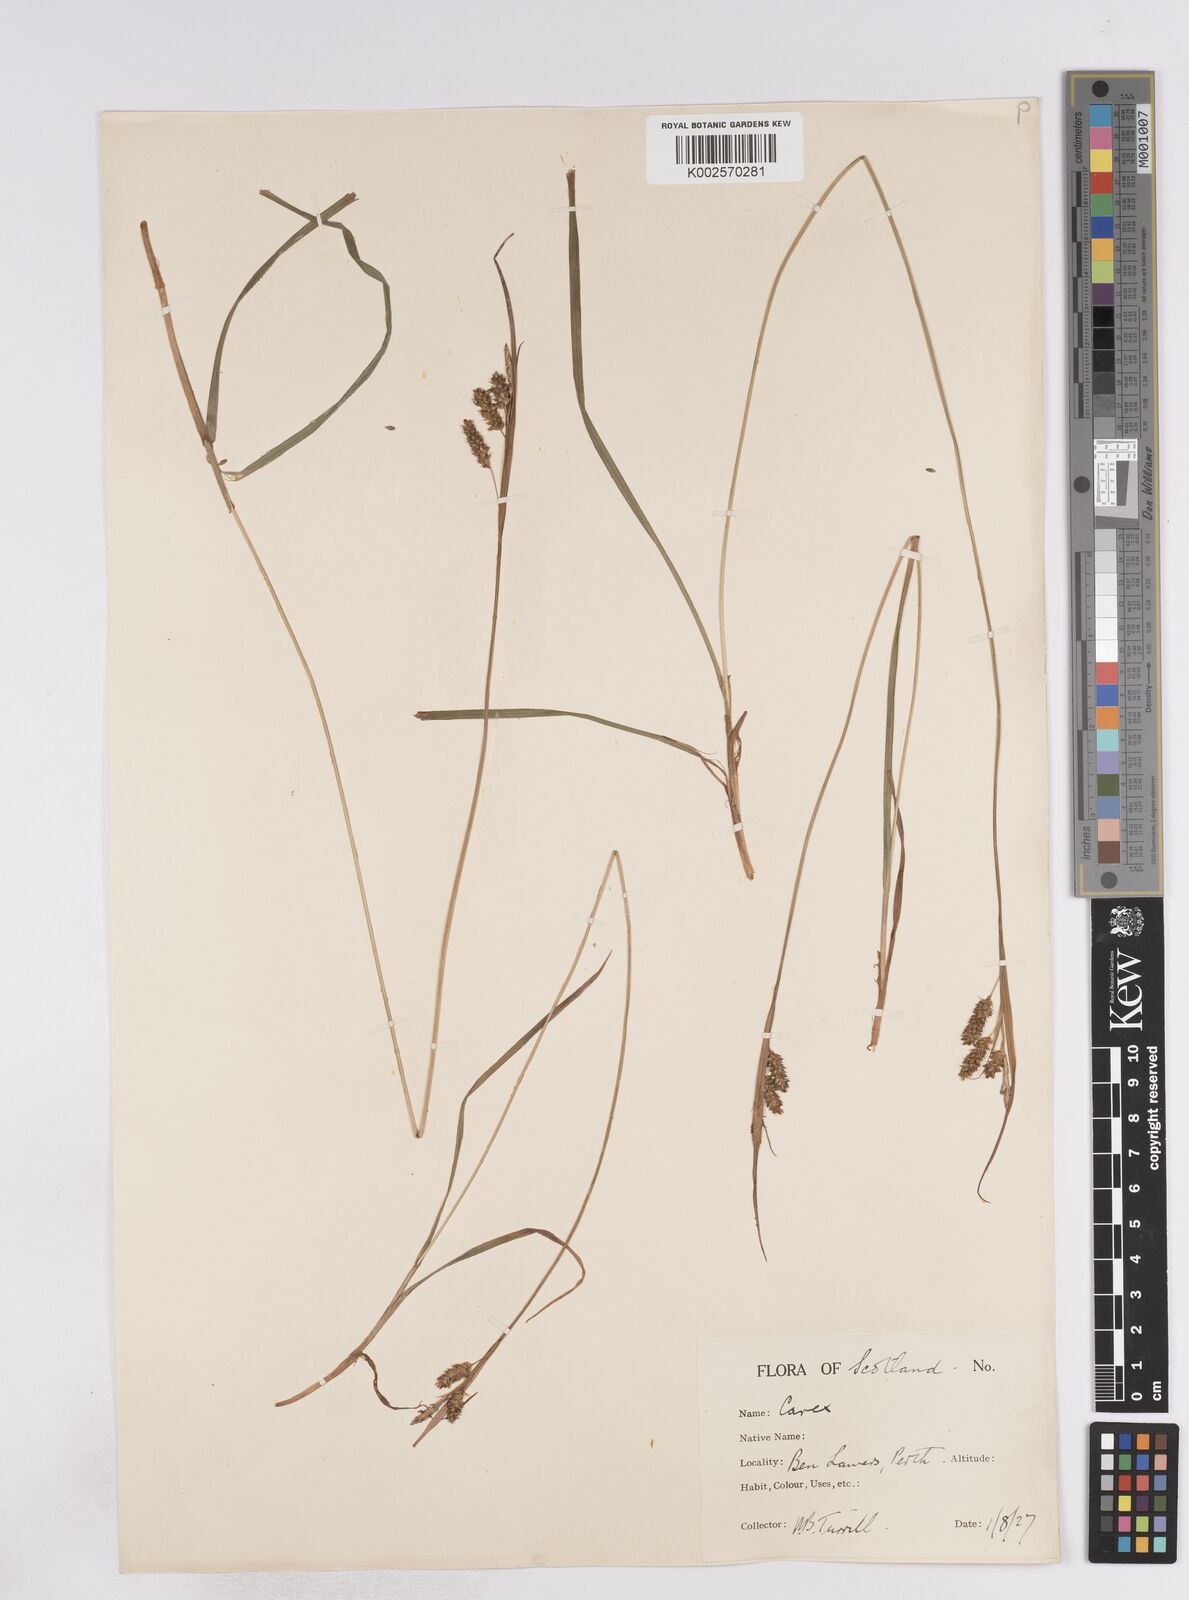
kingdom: Plantae
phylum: Tracheophyta
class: Liliopsida
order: Poales
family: Cyperaceae
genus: Carex
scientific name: Carex pallescens
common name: Pale sedge
